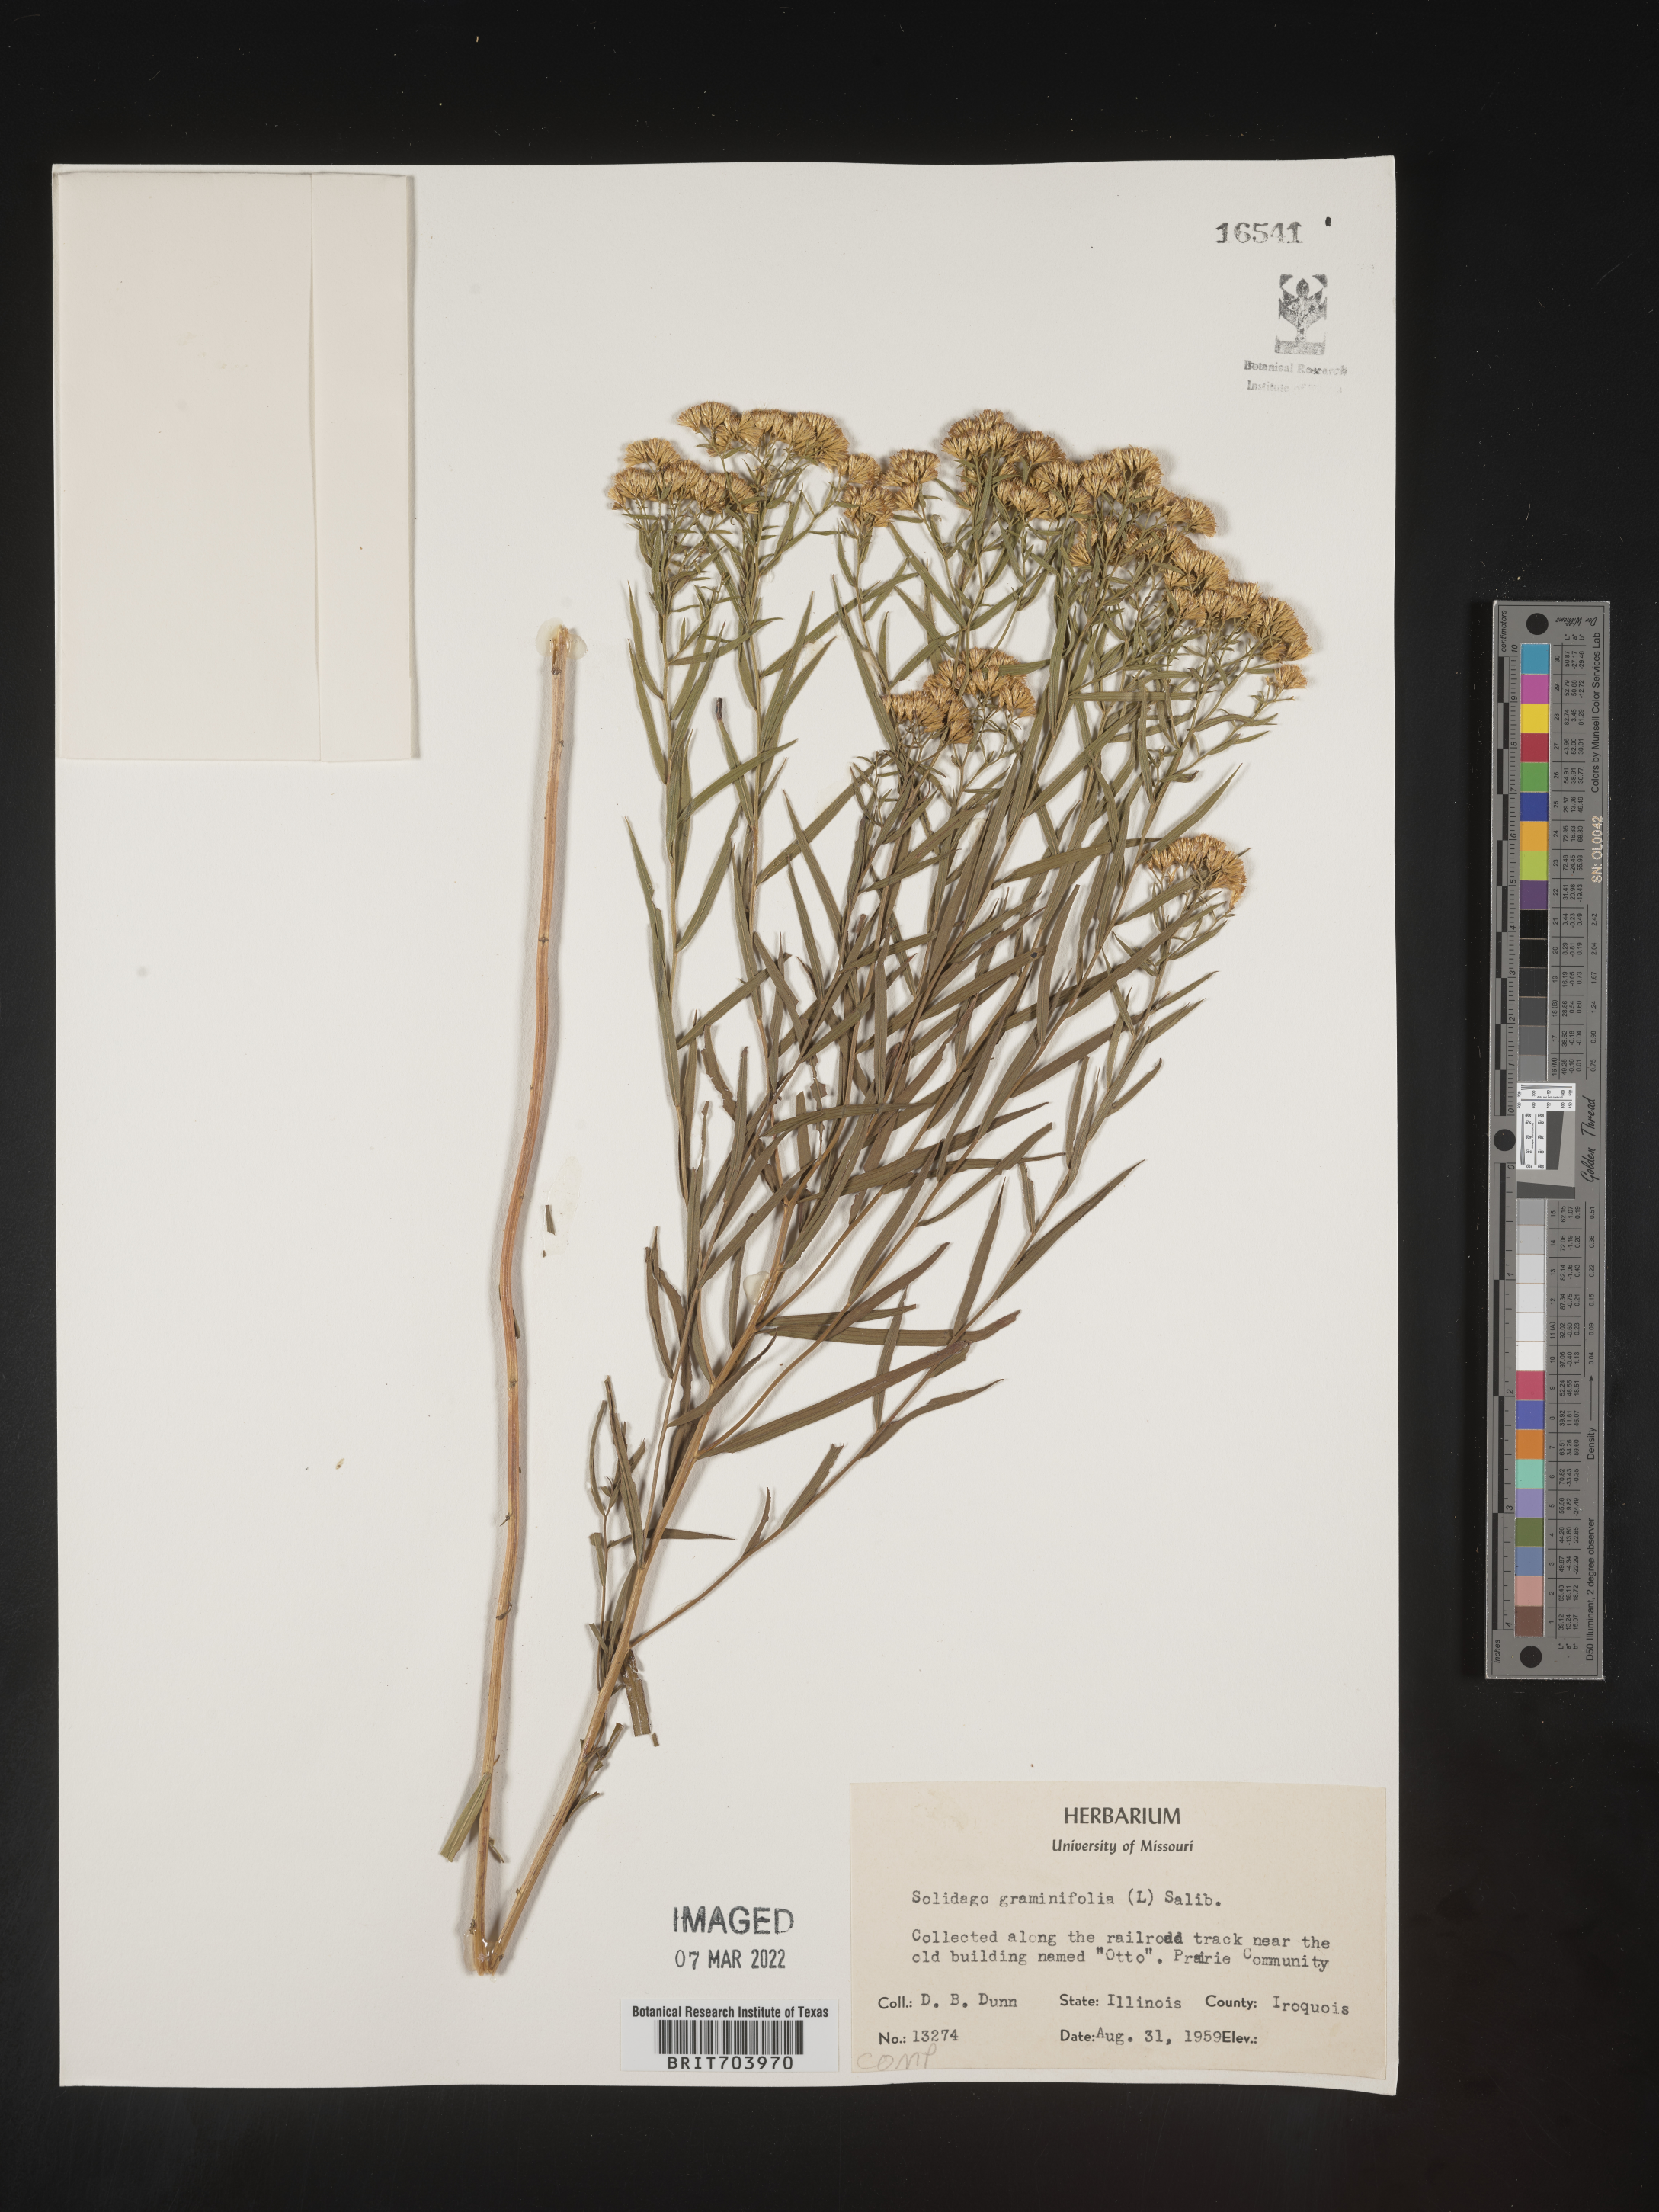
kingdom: Plantae
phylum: Tracheophyta
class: Magnoliopsida
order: Asterales
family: Asteraceae
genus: Euthamia
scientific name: Euthamia graminifolia
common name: Common goldentop
